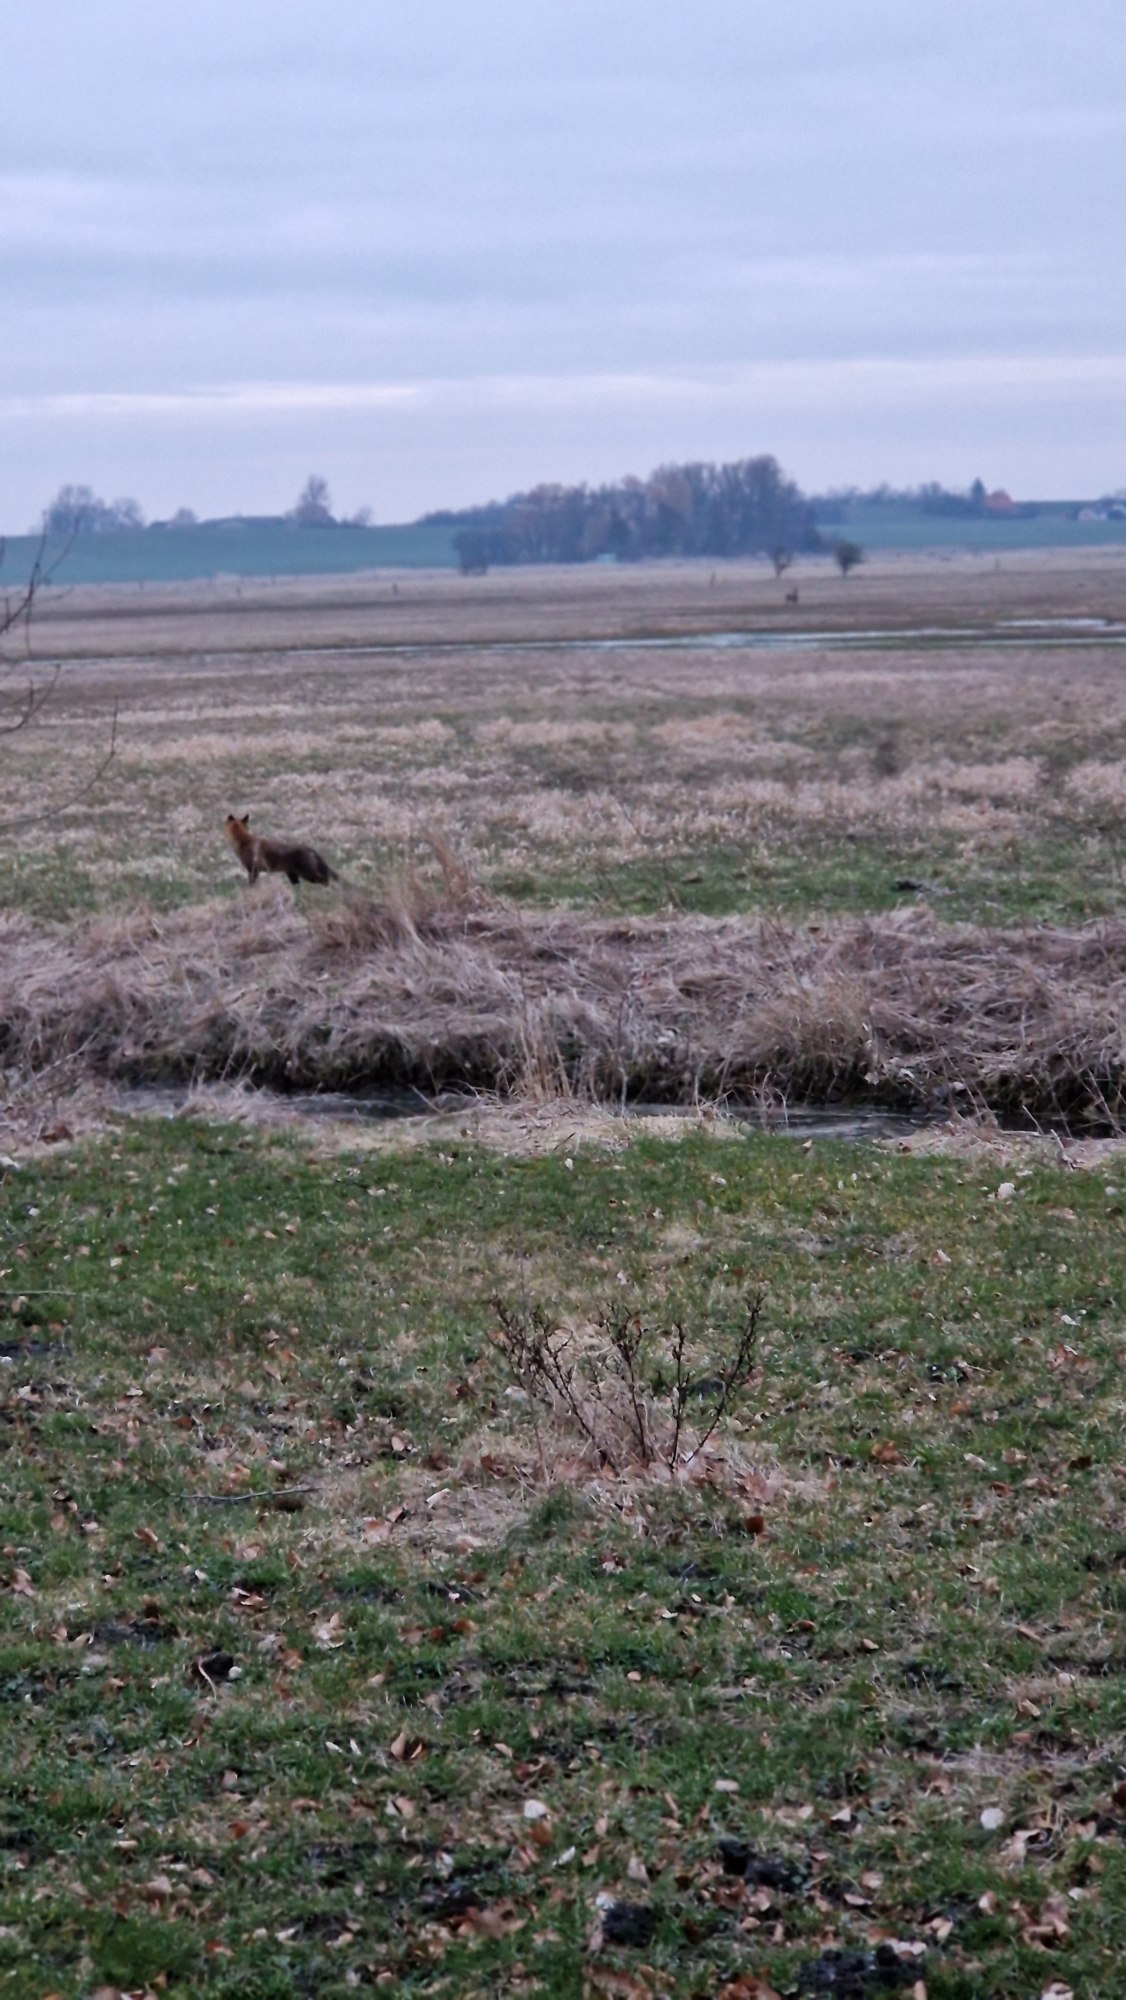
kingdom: Animalia
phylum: Chordata
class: Mammalia
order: Carnivora
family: Canidae
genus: Vulpes
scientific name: Vulpes vulpes
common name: Ræv
